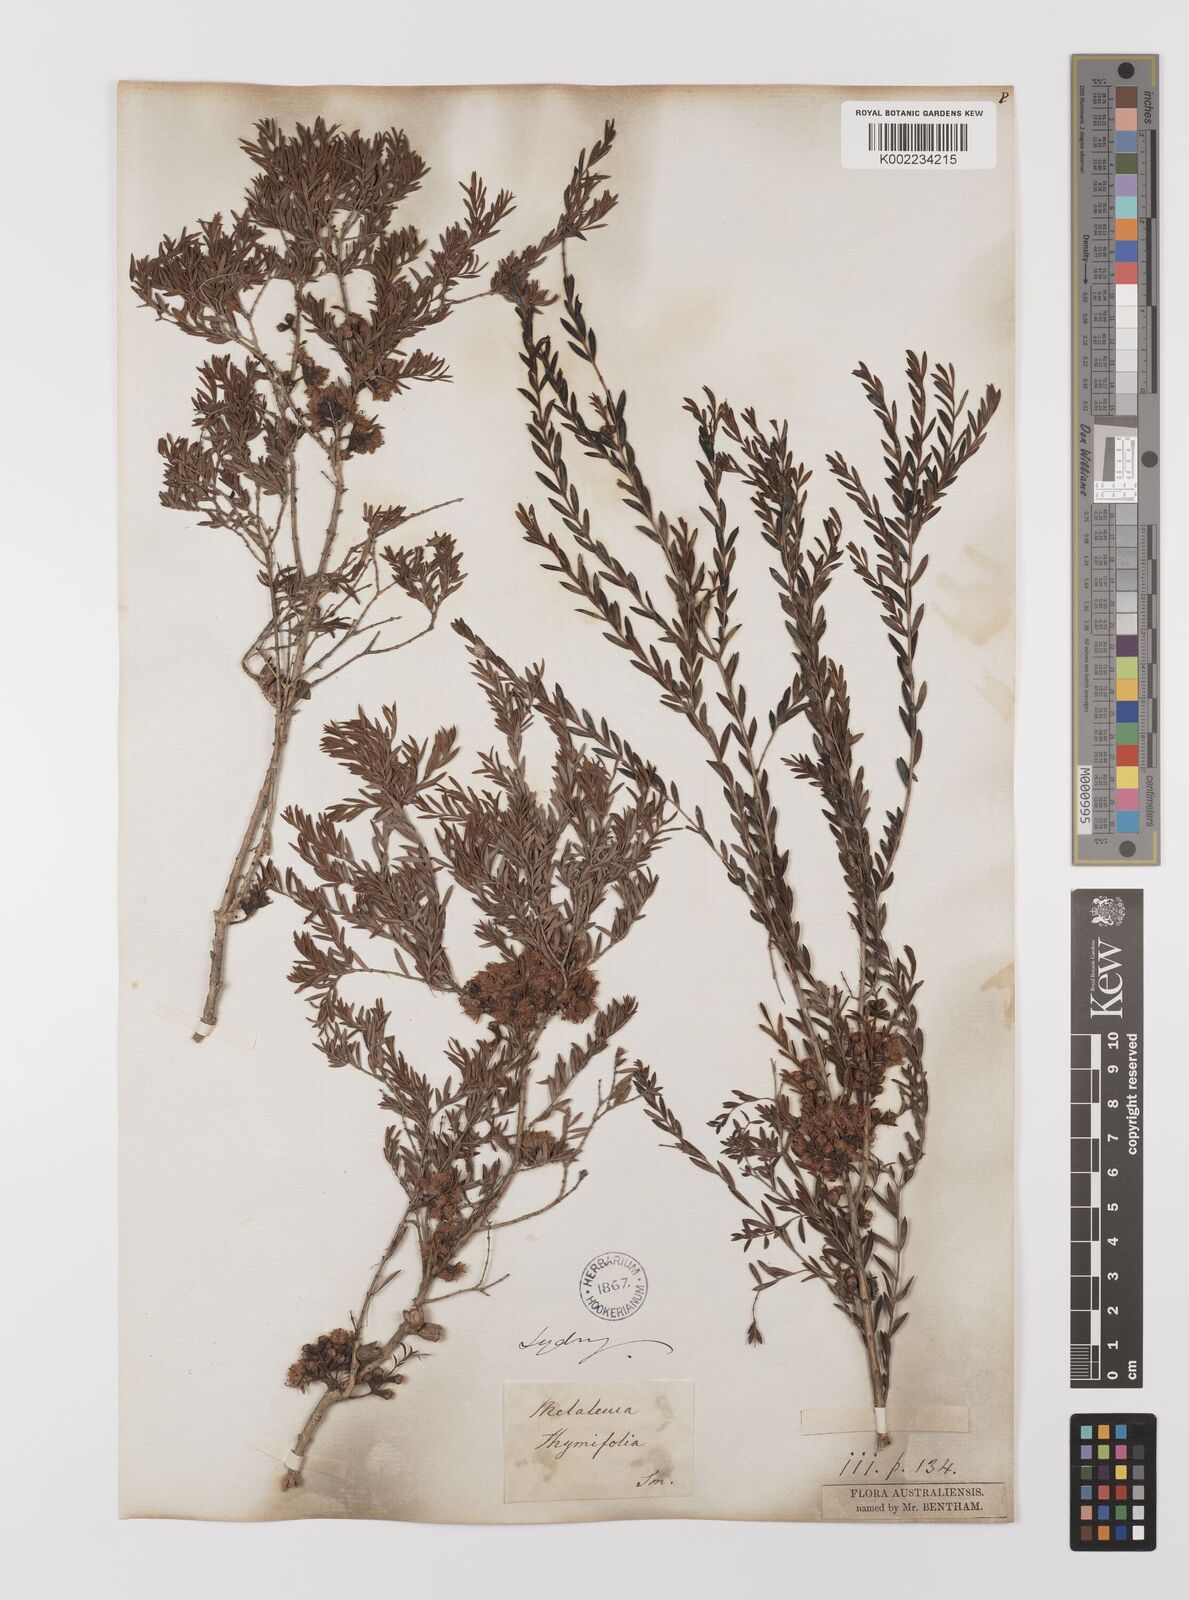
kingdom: Plantae
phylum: Tracheophyta
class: Magnoliopsida
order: Myrtales
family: Myrtaceae
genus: Melaleuca
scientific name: Melaleuca thymifolia
